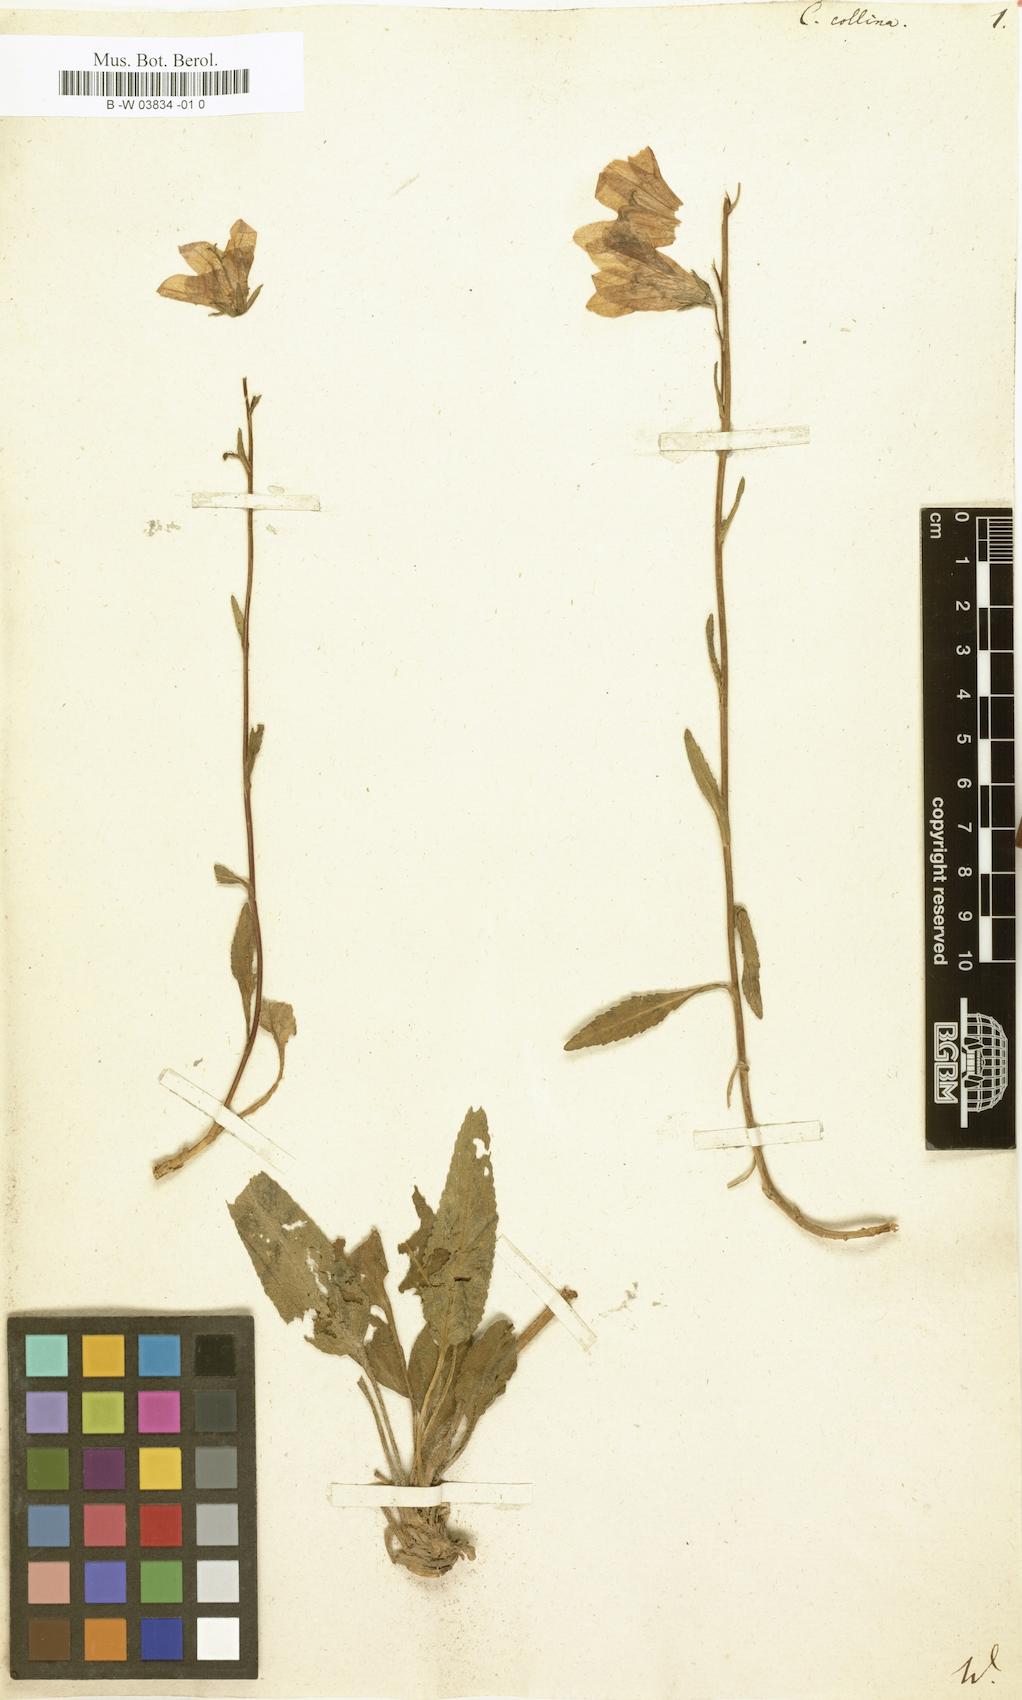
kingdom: Plantae
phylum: Tracheophyta
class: Magnoliopsida
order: Asterales
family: Campanulaceae
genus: Campanula
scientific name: Campanula collina
